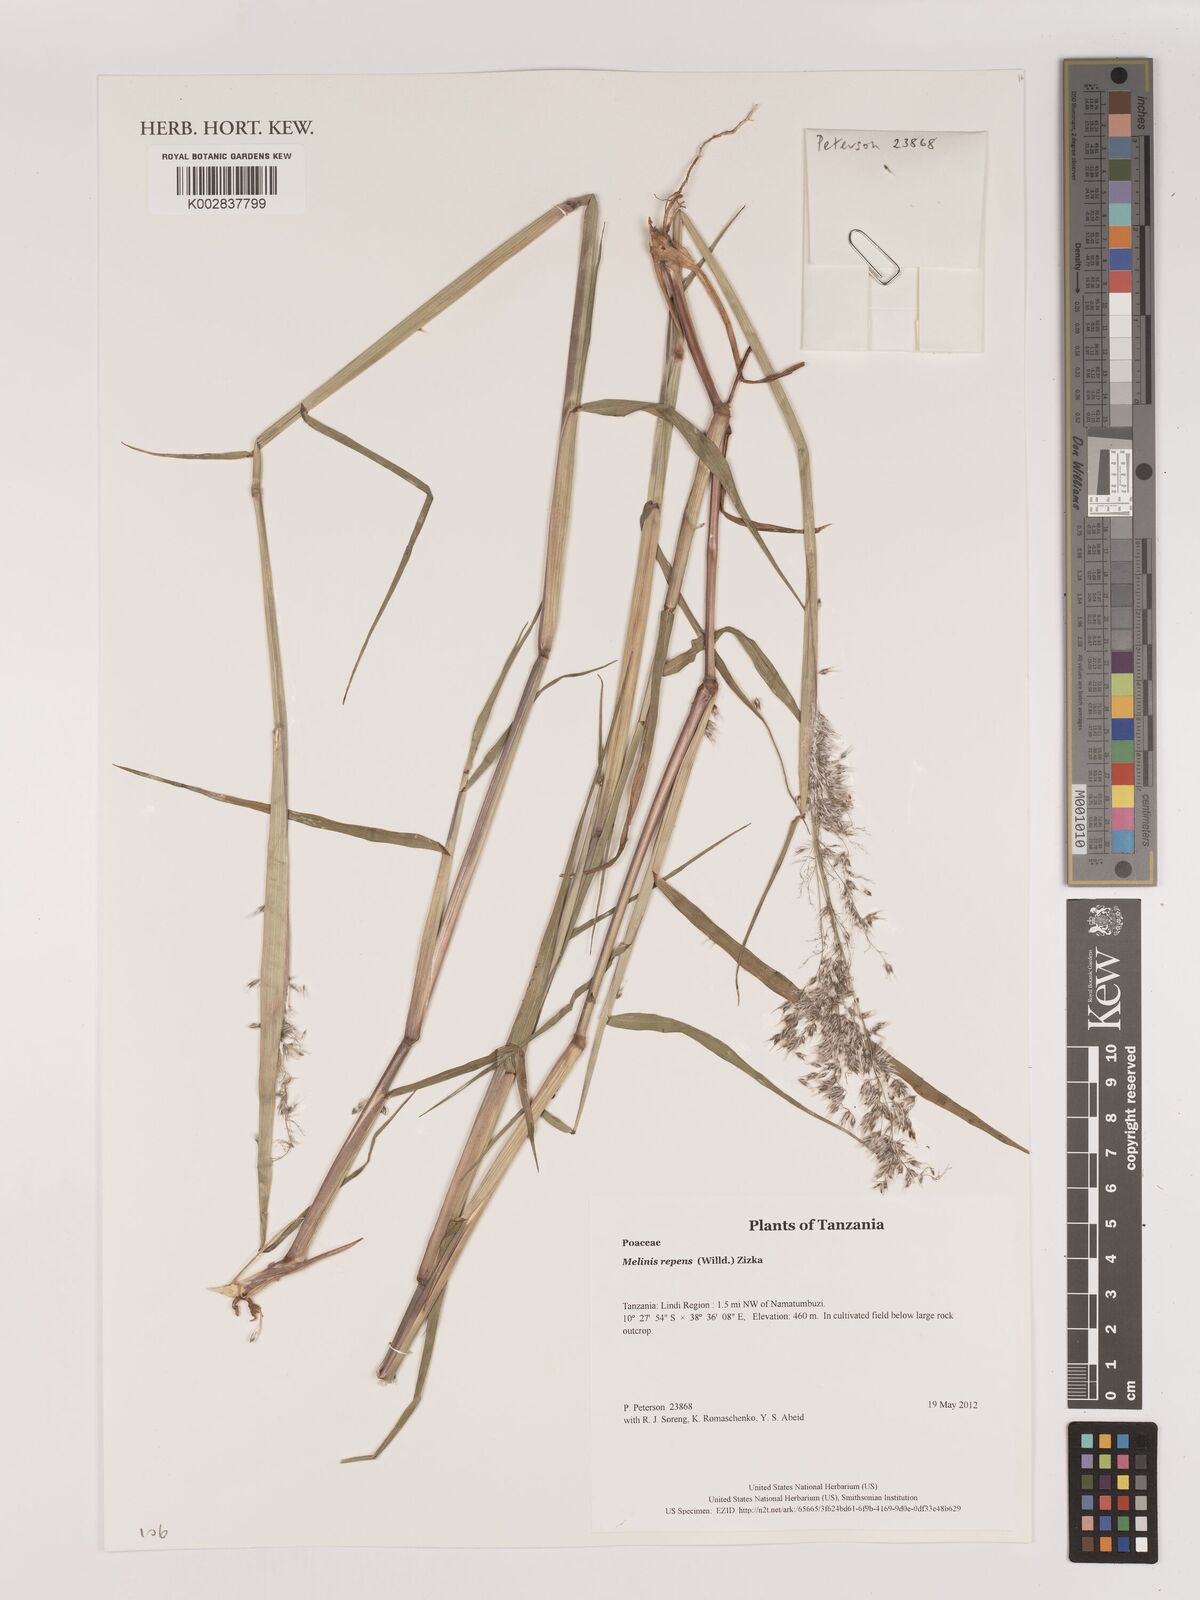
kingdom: Plantae
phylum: Tracheophyta
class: Liliopsida
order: Poales
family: Poaceae
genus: Melinis
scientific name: Melinis repens
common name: Rose natal grass
